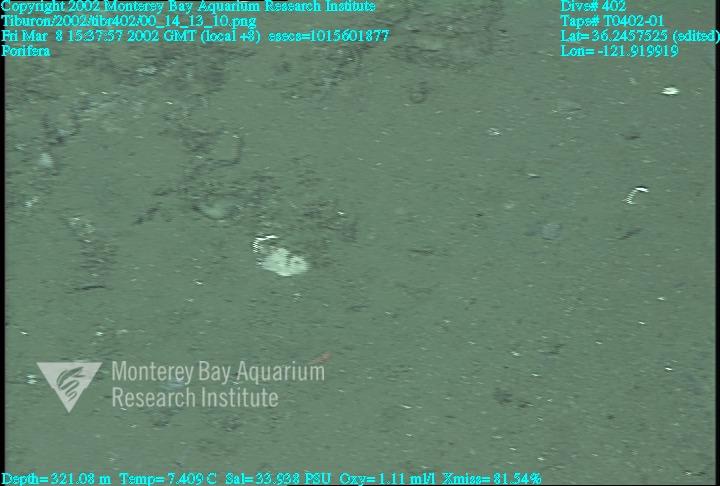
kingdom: Animalia
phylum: Porifera
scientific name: Porifera
